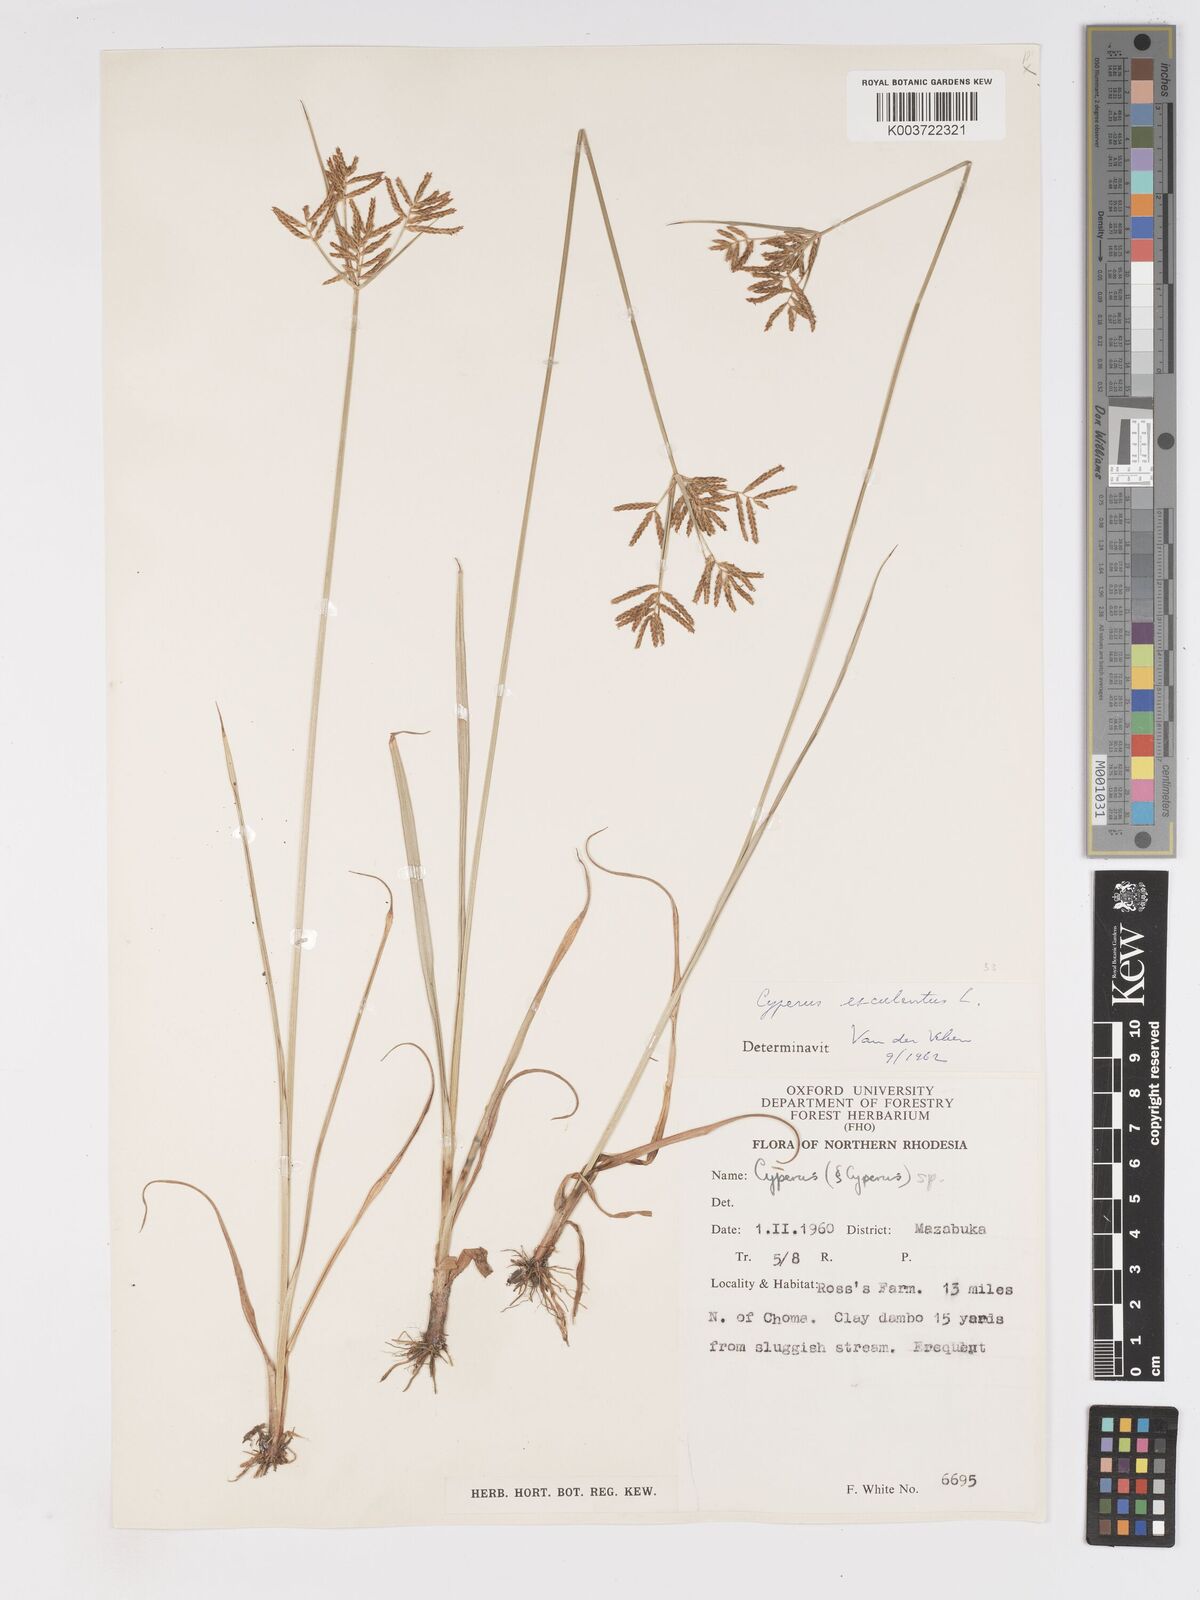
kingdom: Plantae
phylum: Tracheophyta
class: Liliopsida
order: Poales
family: Cyperaceae
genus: Cyperus
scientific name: Cyperus esculentus
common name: Yellow nutsedge
